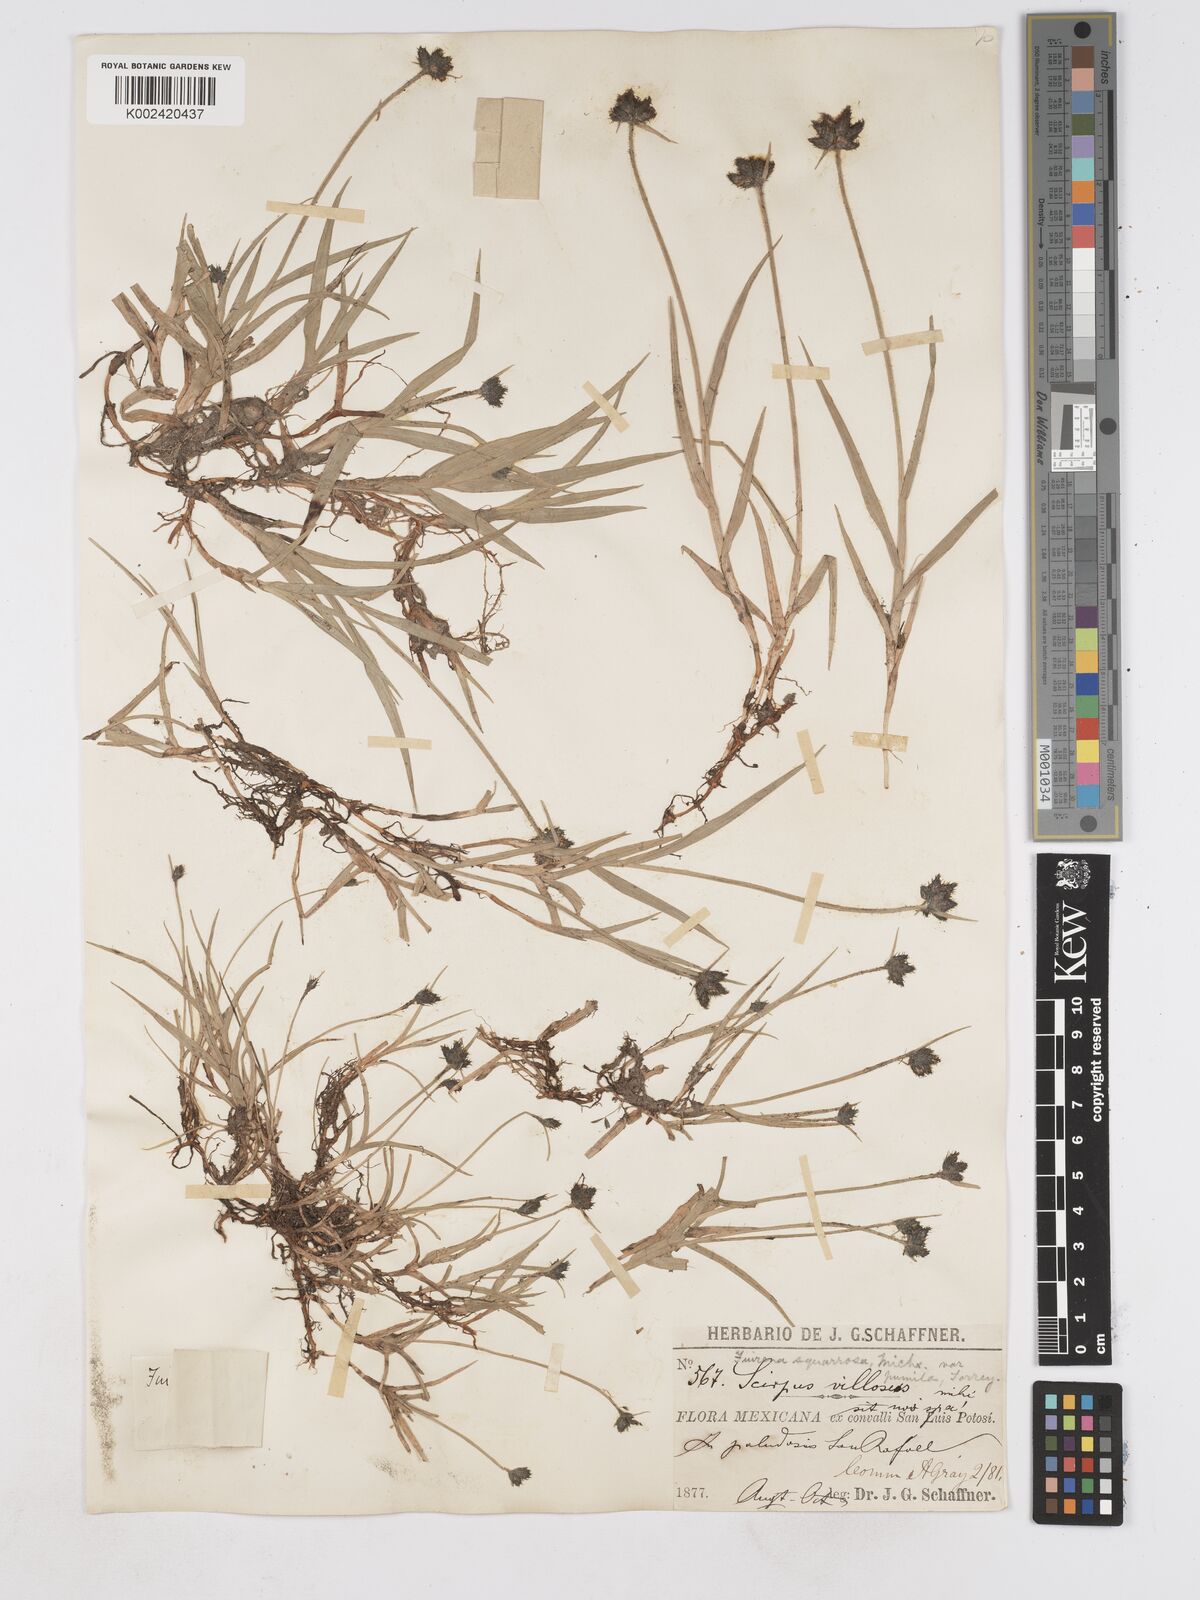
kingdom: Plantae
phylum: Tracheophyta
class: Liliopsida
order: Poales
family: Cyperaceae
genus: Fuirena
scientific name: Fuirena squarrosa
